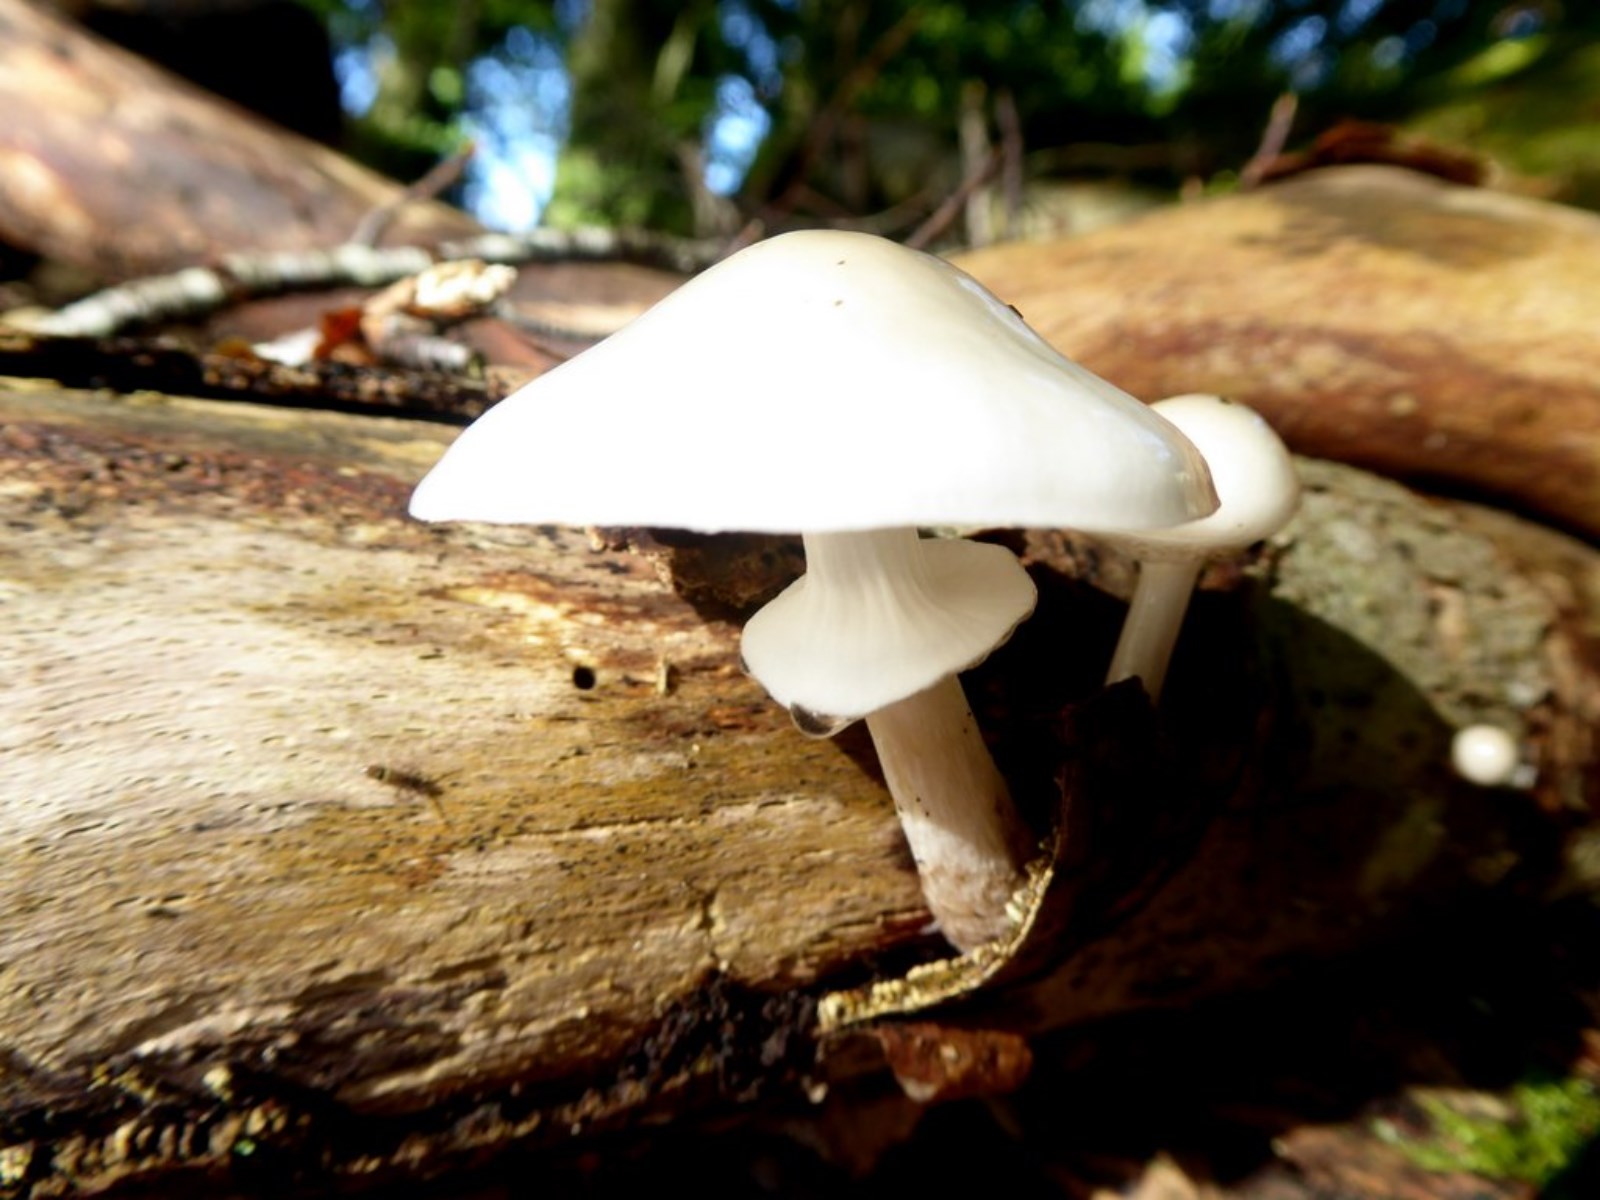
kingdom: Fungi
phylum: Basidiomycota
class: Agaricomycetes
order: Agaricales
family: Physalacriaceae
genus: Mucidula
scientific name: Mucidula mucida
